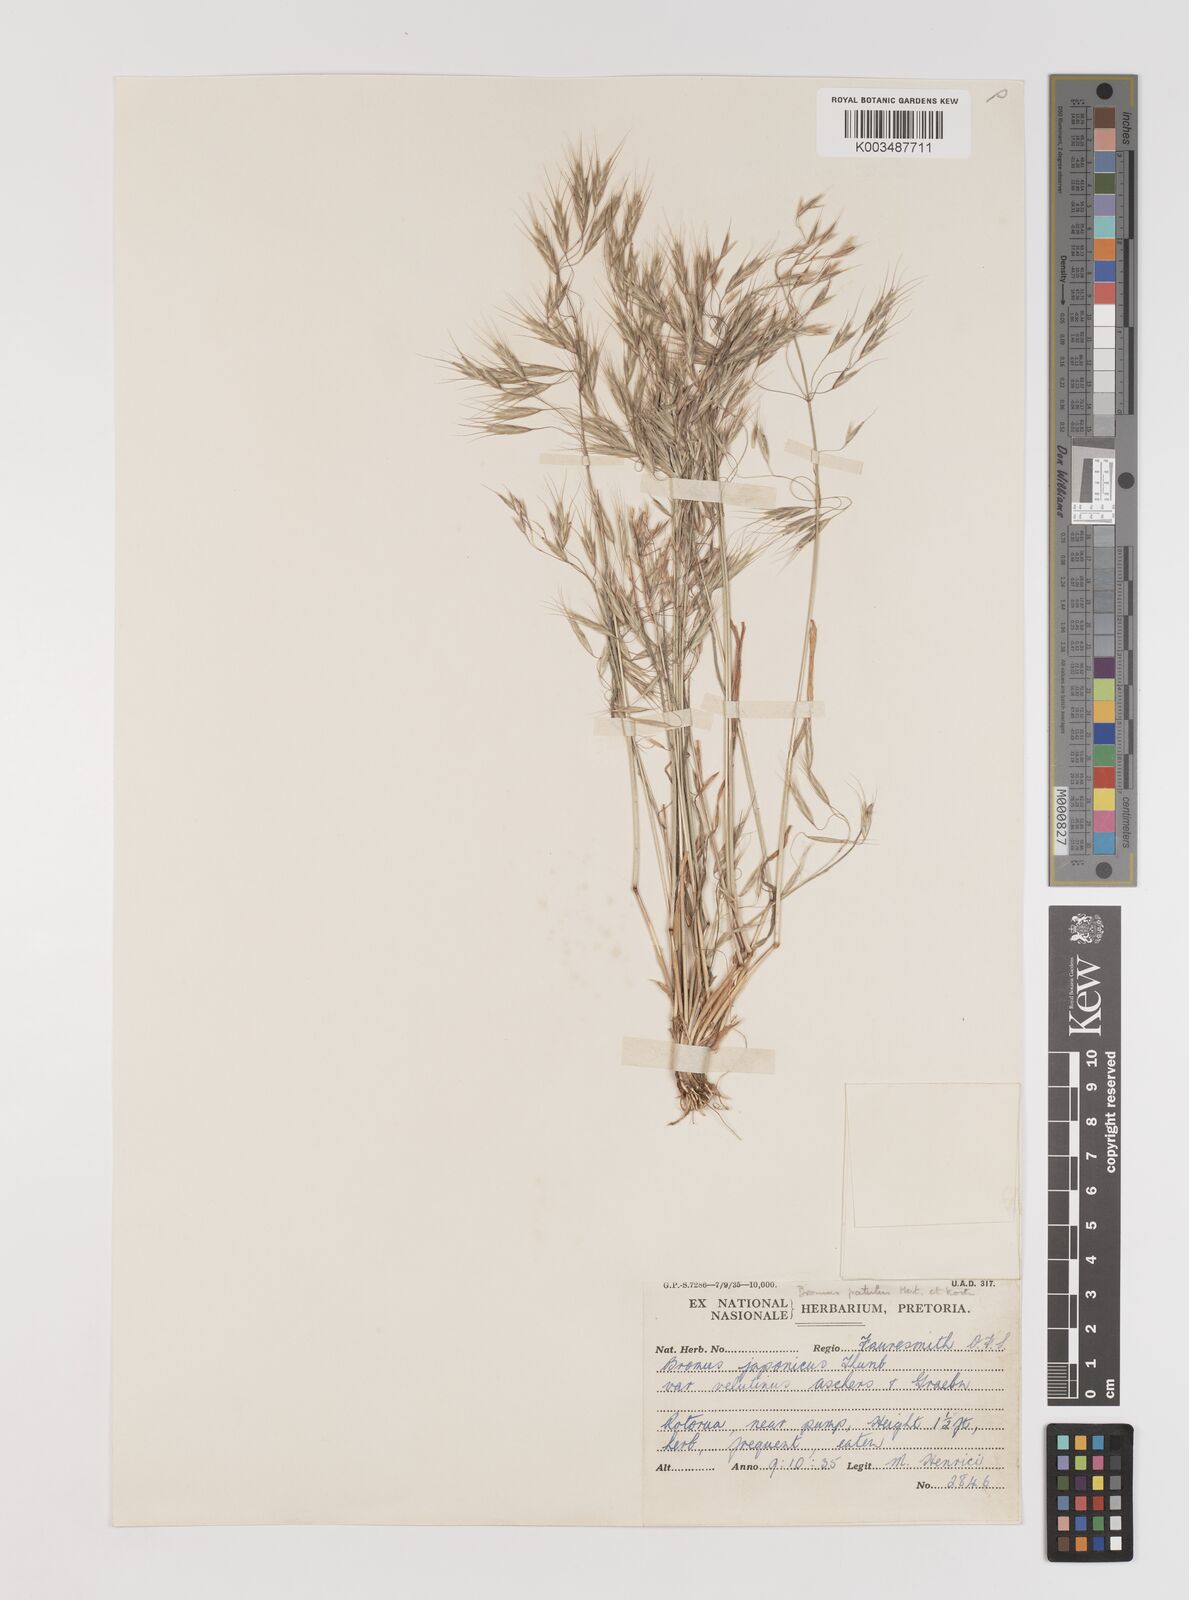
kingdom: Plantae
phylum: Tracheophyta
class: Liliopsida
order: Poales
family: Poaceae
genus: Bromus
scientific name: Bromus pectinatus
